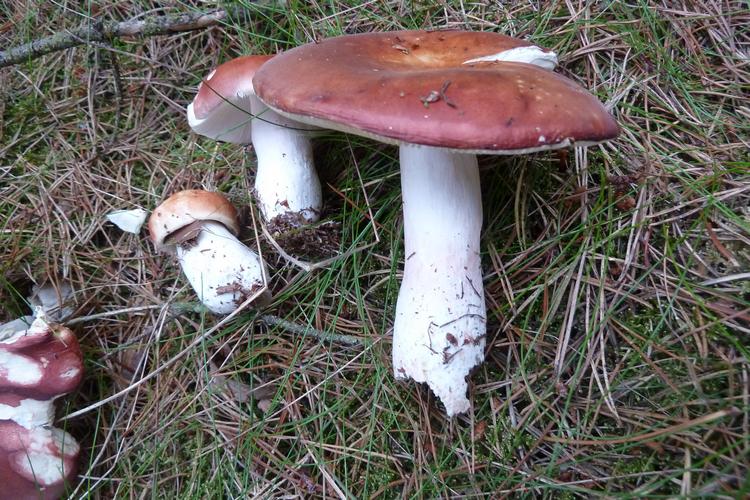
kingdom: Fungi
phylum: Basidiomycota
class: Agaricomycetes
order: Russulales
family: Russulaceae
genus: Russula
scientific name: Russula paludosa
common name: prægtig skørhat
